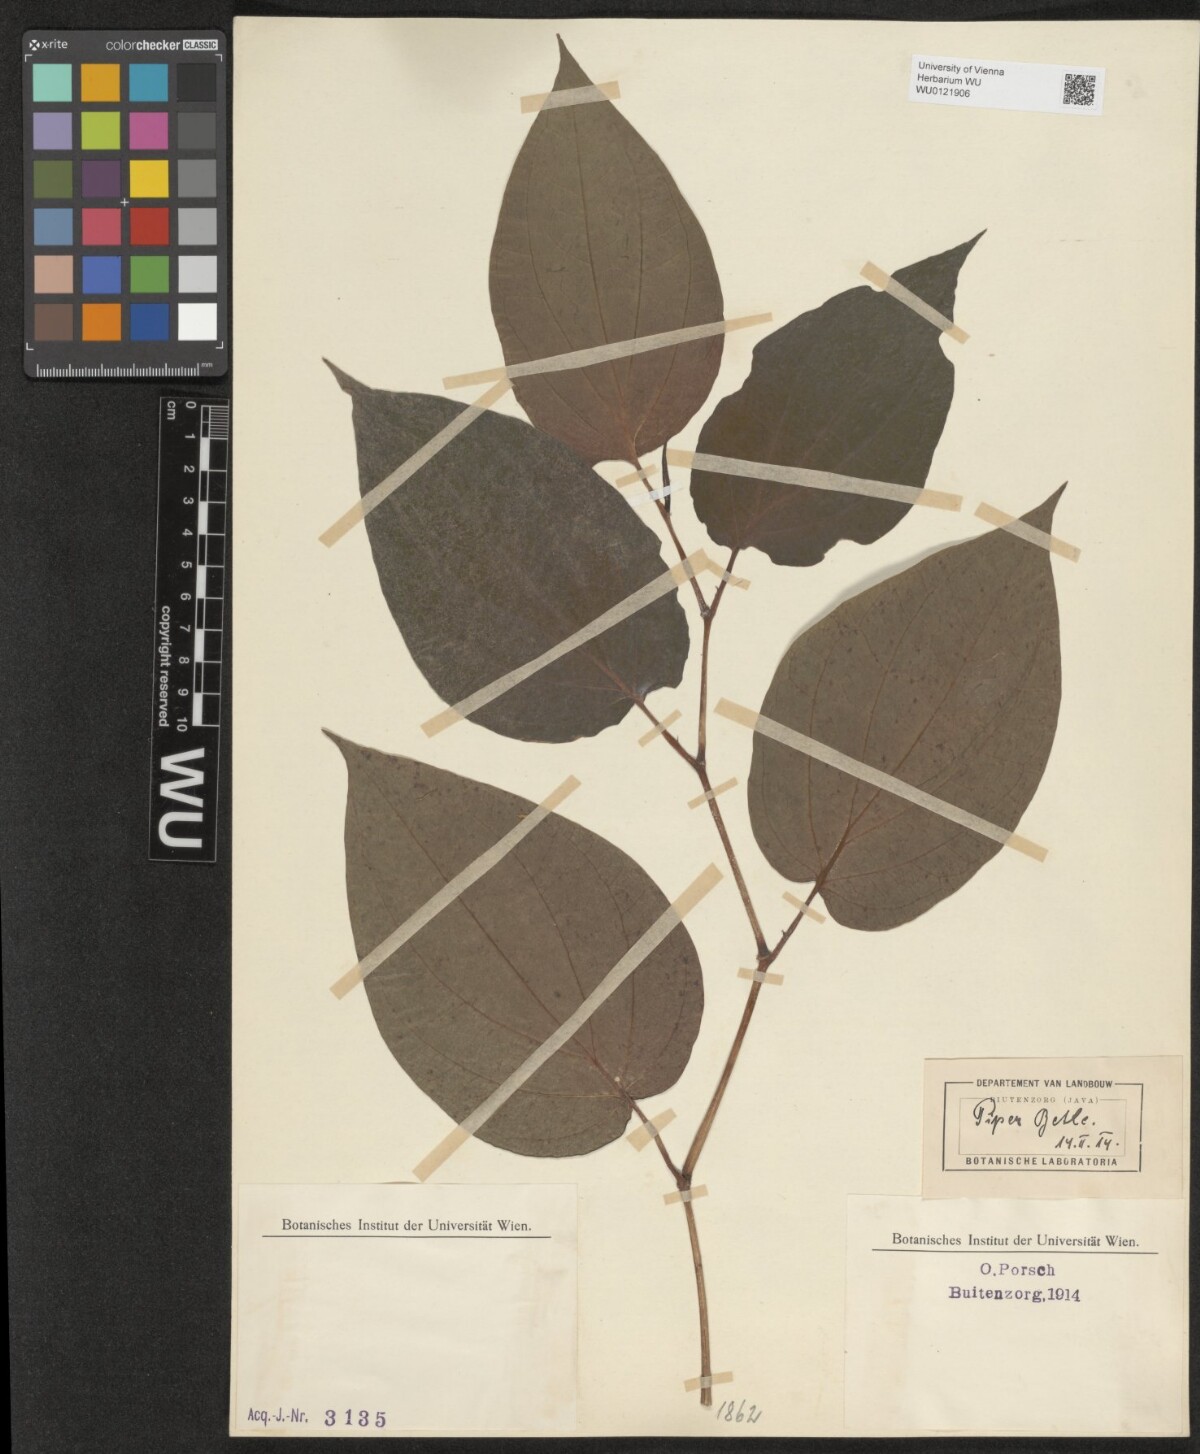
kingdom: Plantae
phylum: Tracheophyta
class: Magnoliopsida
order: Piperales
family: Piperaceae
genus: Piper
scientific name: Piper betle
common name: Betel pepper
